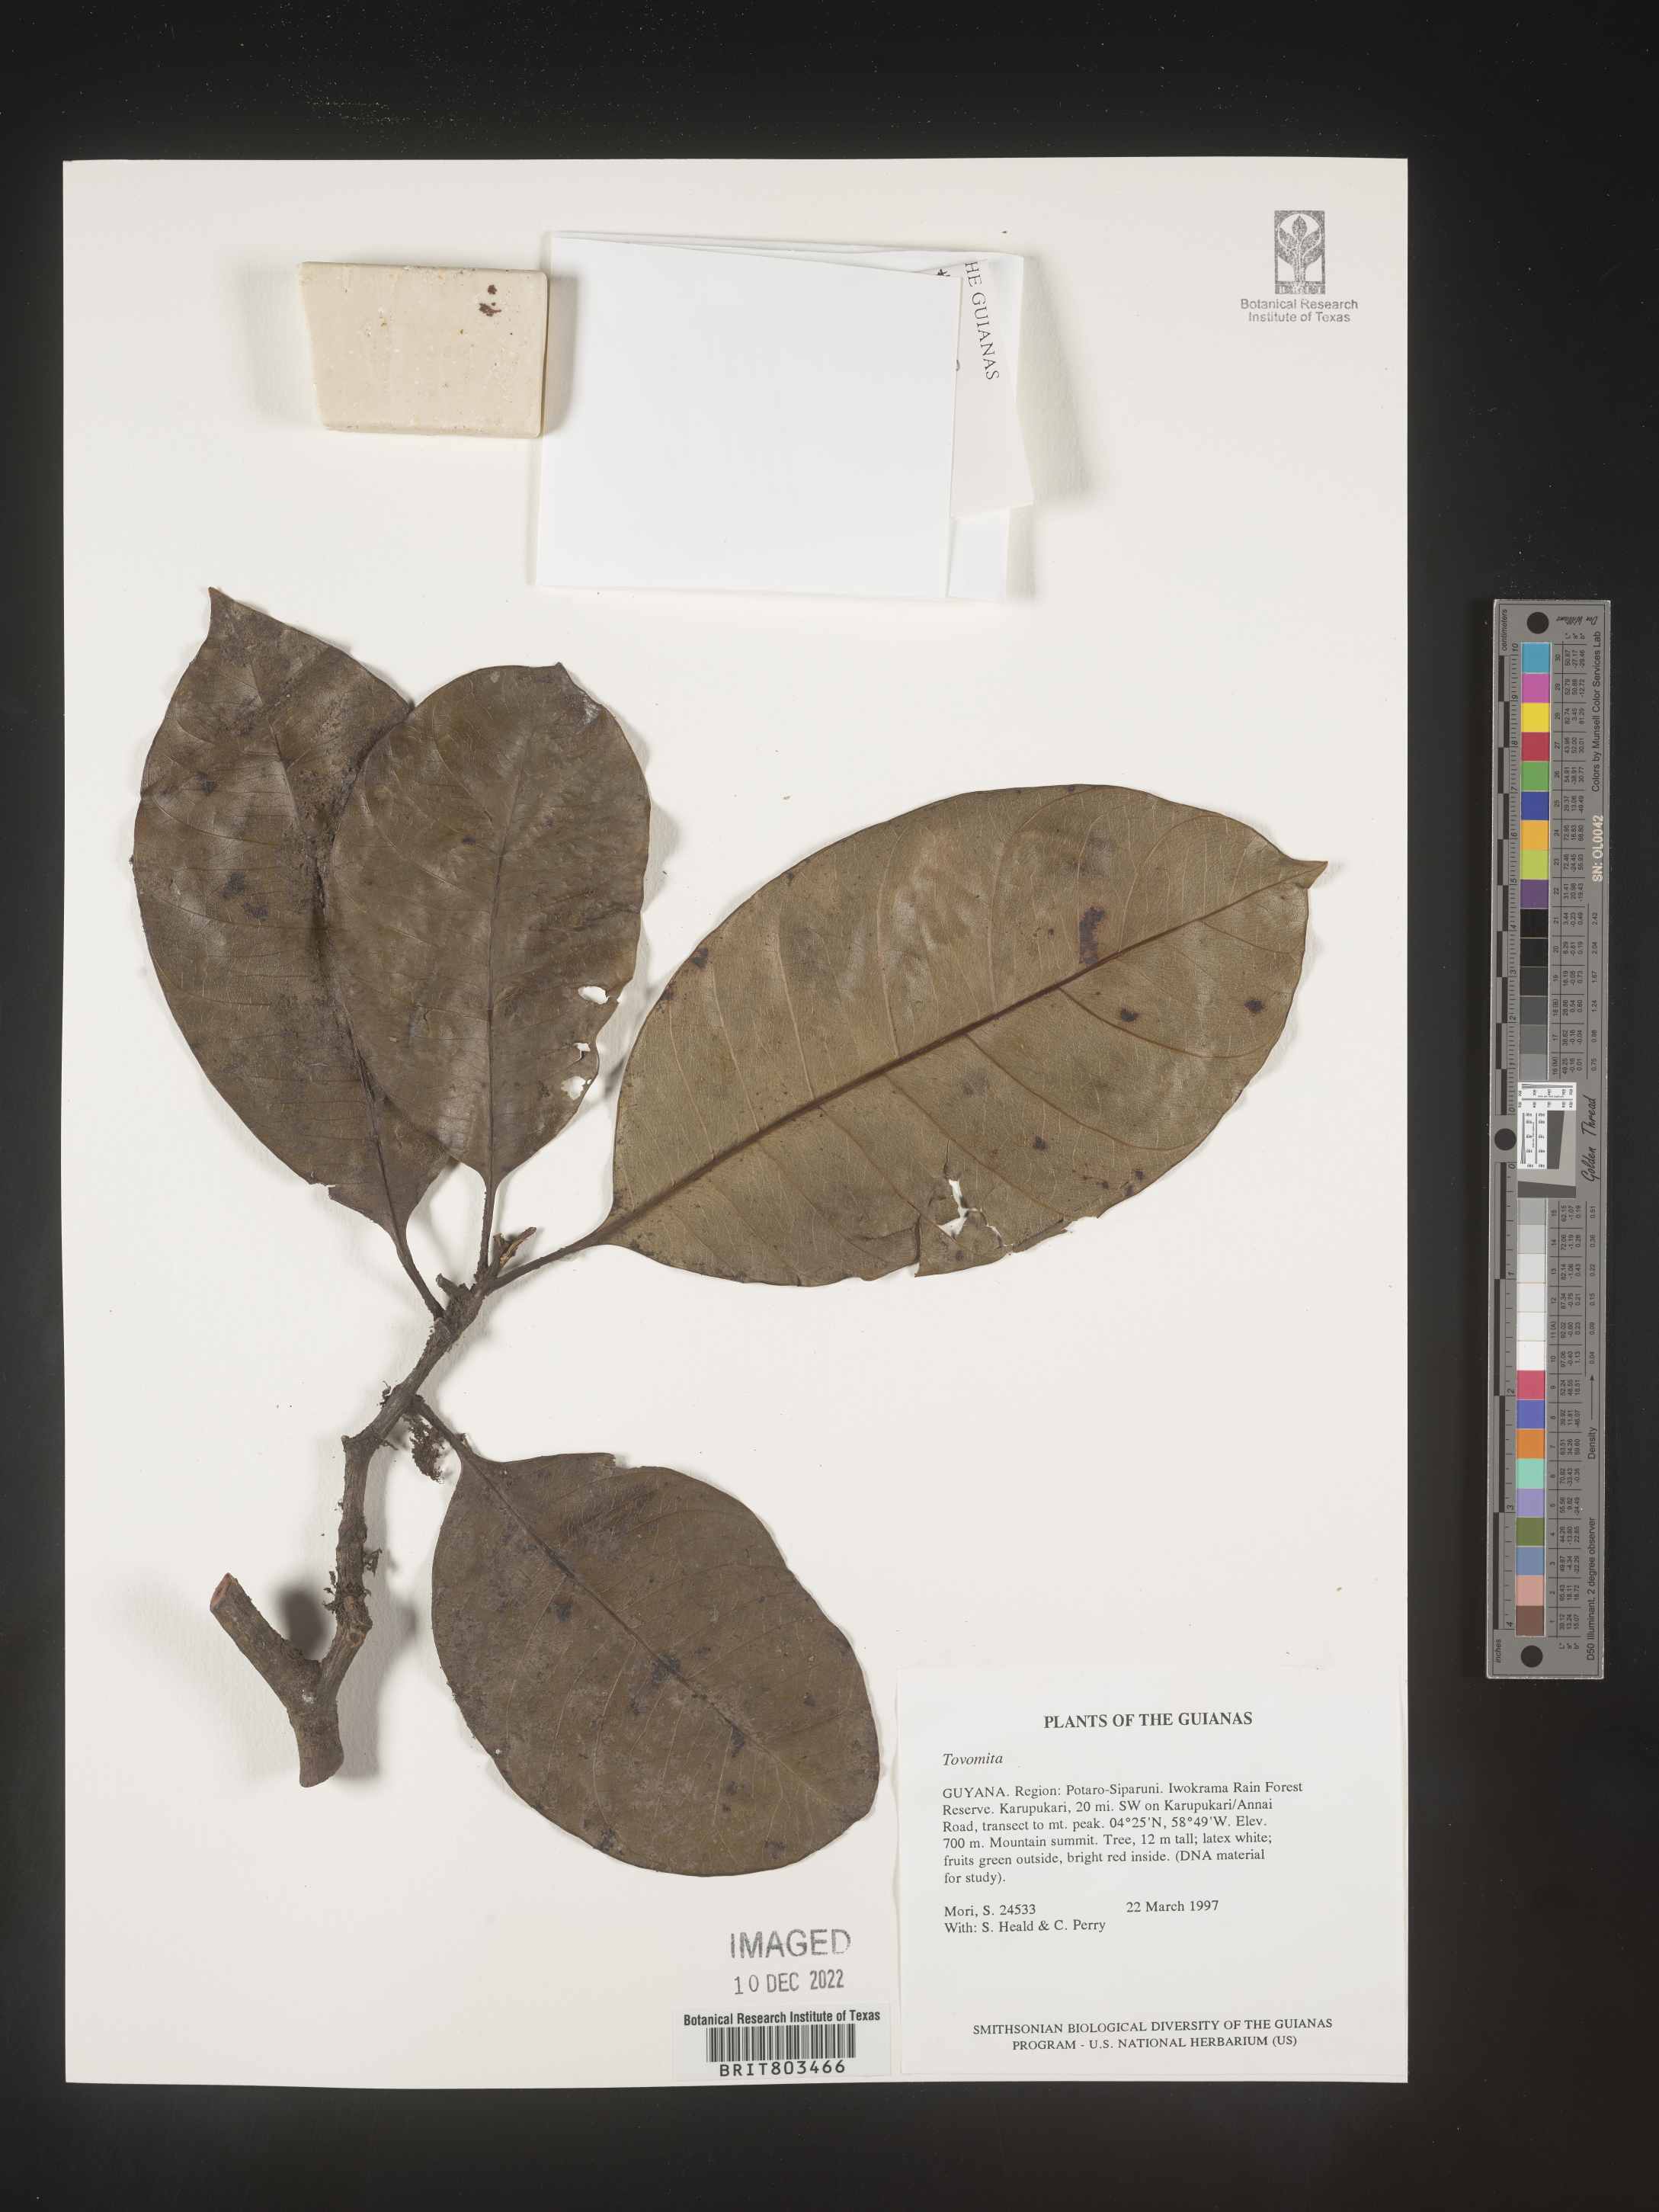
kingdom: Plantae
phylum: Tracheophyta
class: Magnoliopsida
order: Malpighiales
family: Clusiaceae
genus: Tovomita
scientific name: Tovomita
